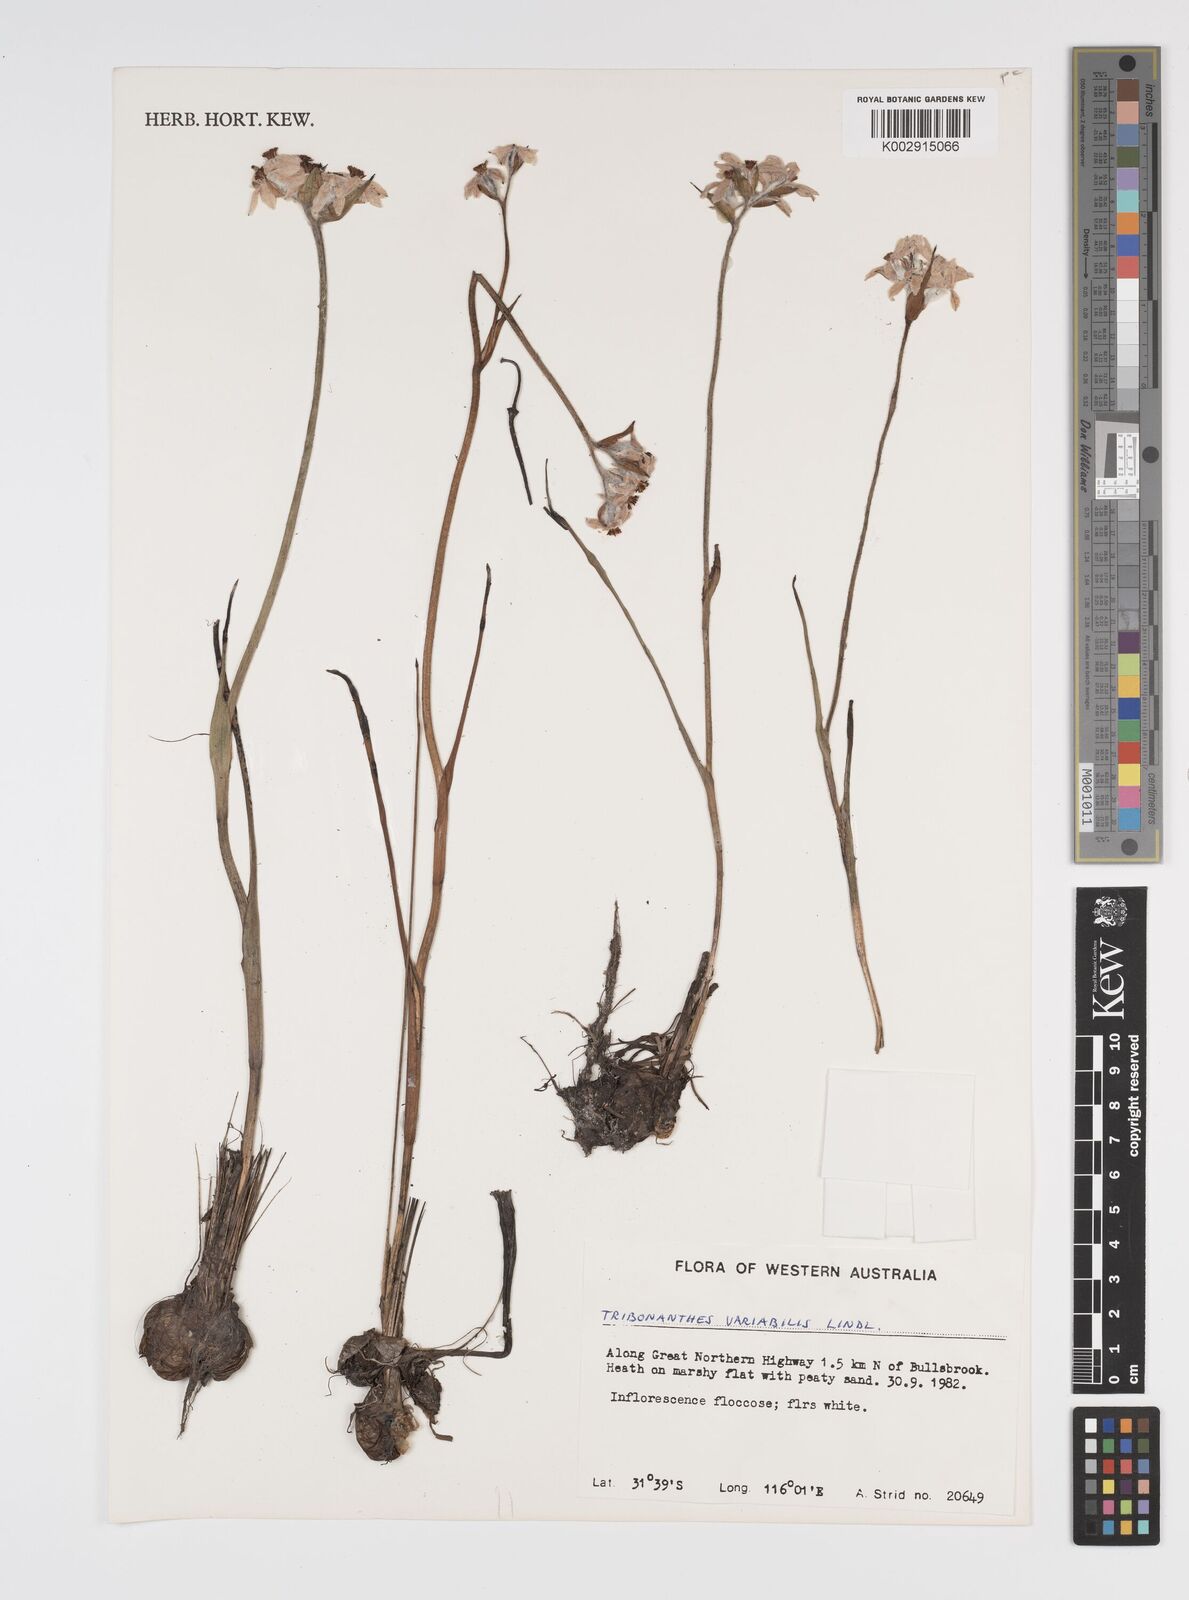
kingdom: Plantae
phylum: Tracheophyta
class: Liliopsida
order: Commelinales
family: Haemodoraceae
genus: Tribonanthes
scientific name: Tribonanthes australis
